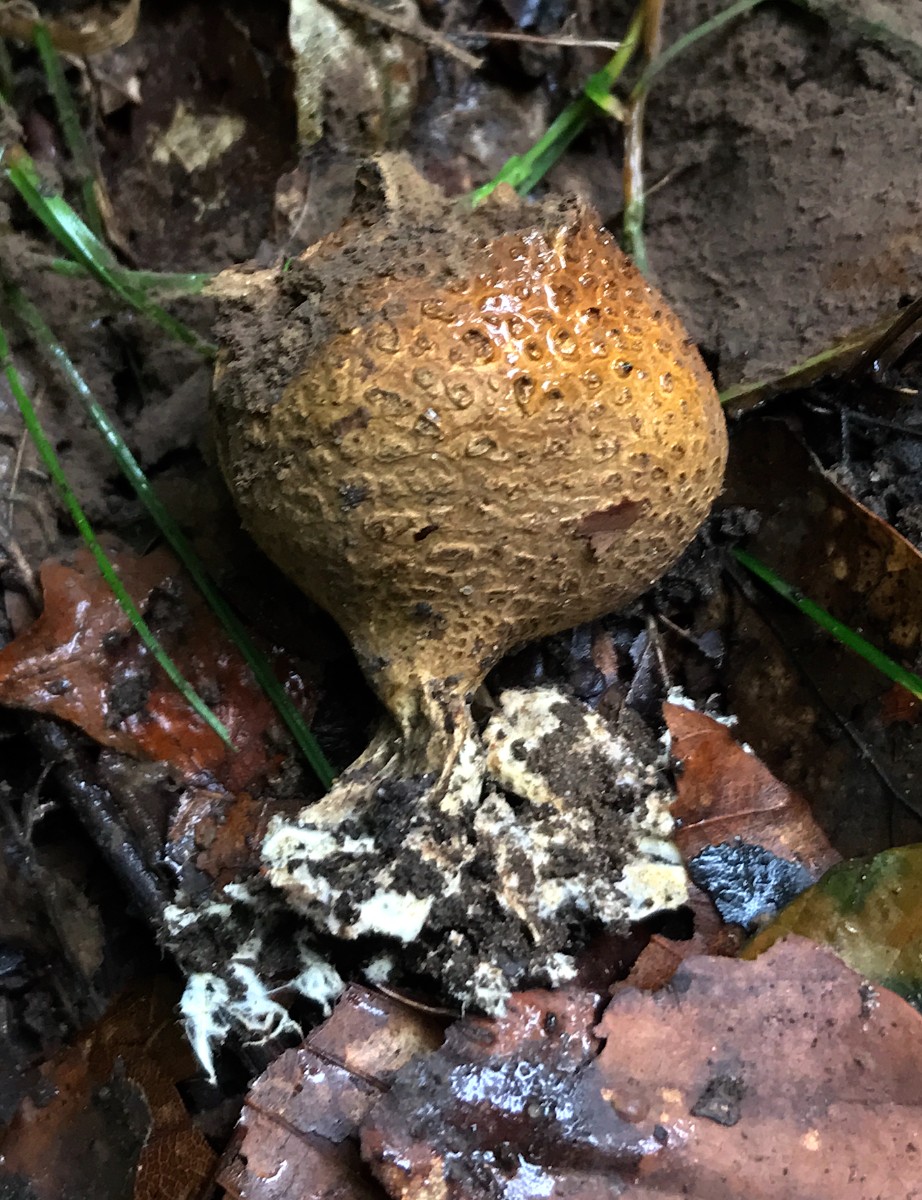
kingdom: Fungi
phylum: Basidiomycota
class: Agaricomycetes
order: Boletales
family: Sclerodermataceae
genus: Scleroderma
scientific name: Scleroderma
